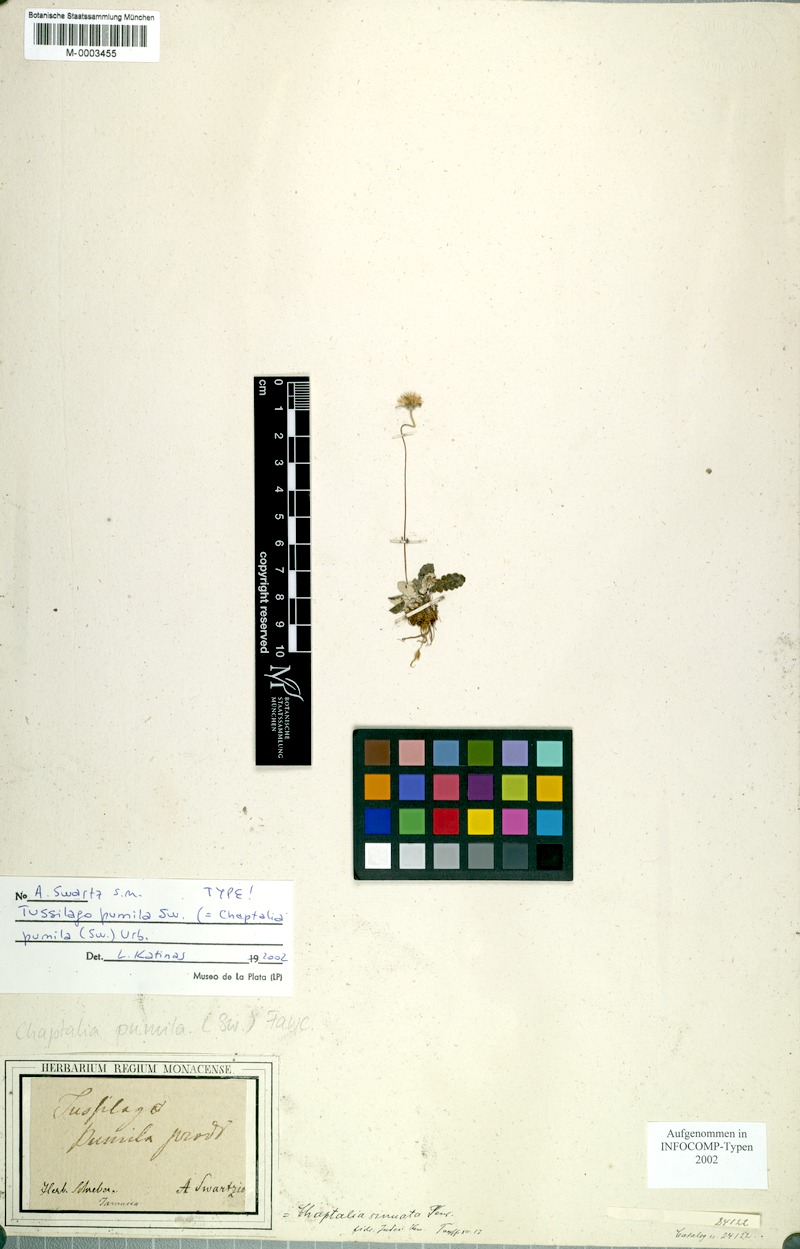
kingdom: Plantae
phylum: Tracheophyta
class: Magnoliopsida
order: Asterales
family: Asteraceae
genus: Chaptalia
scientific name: Chaptalia pumila
